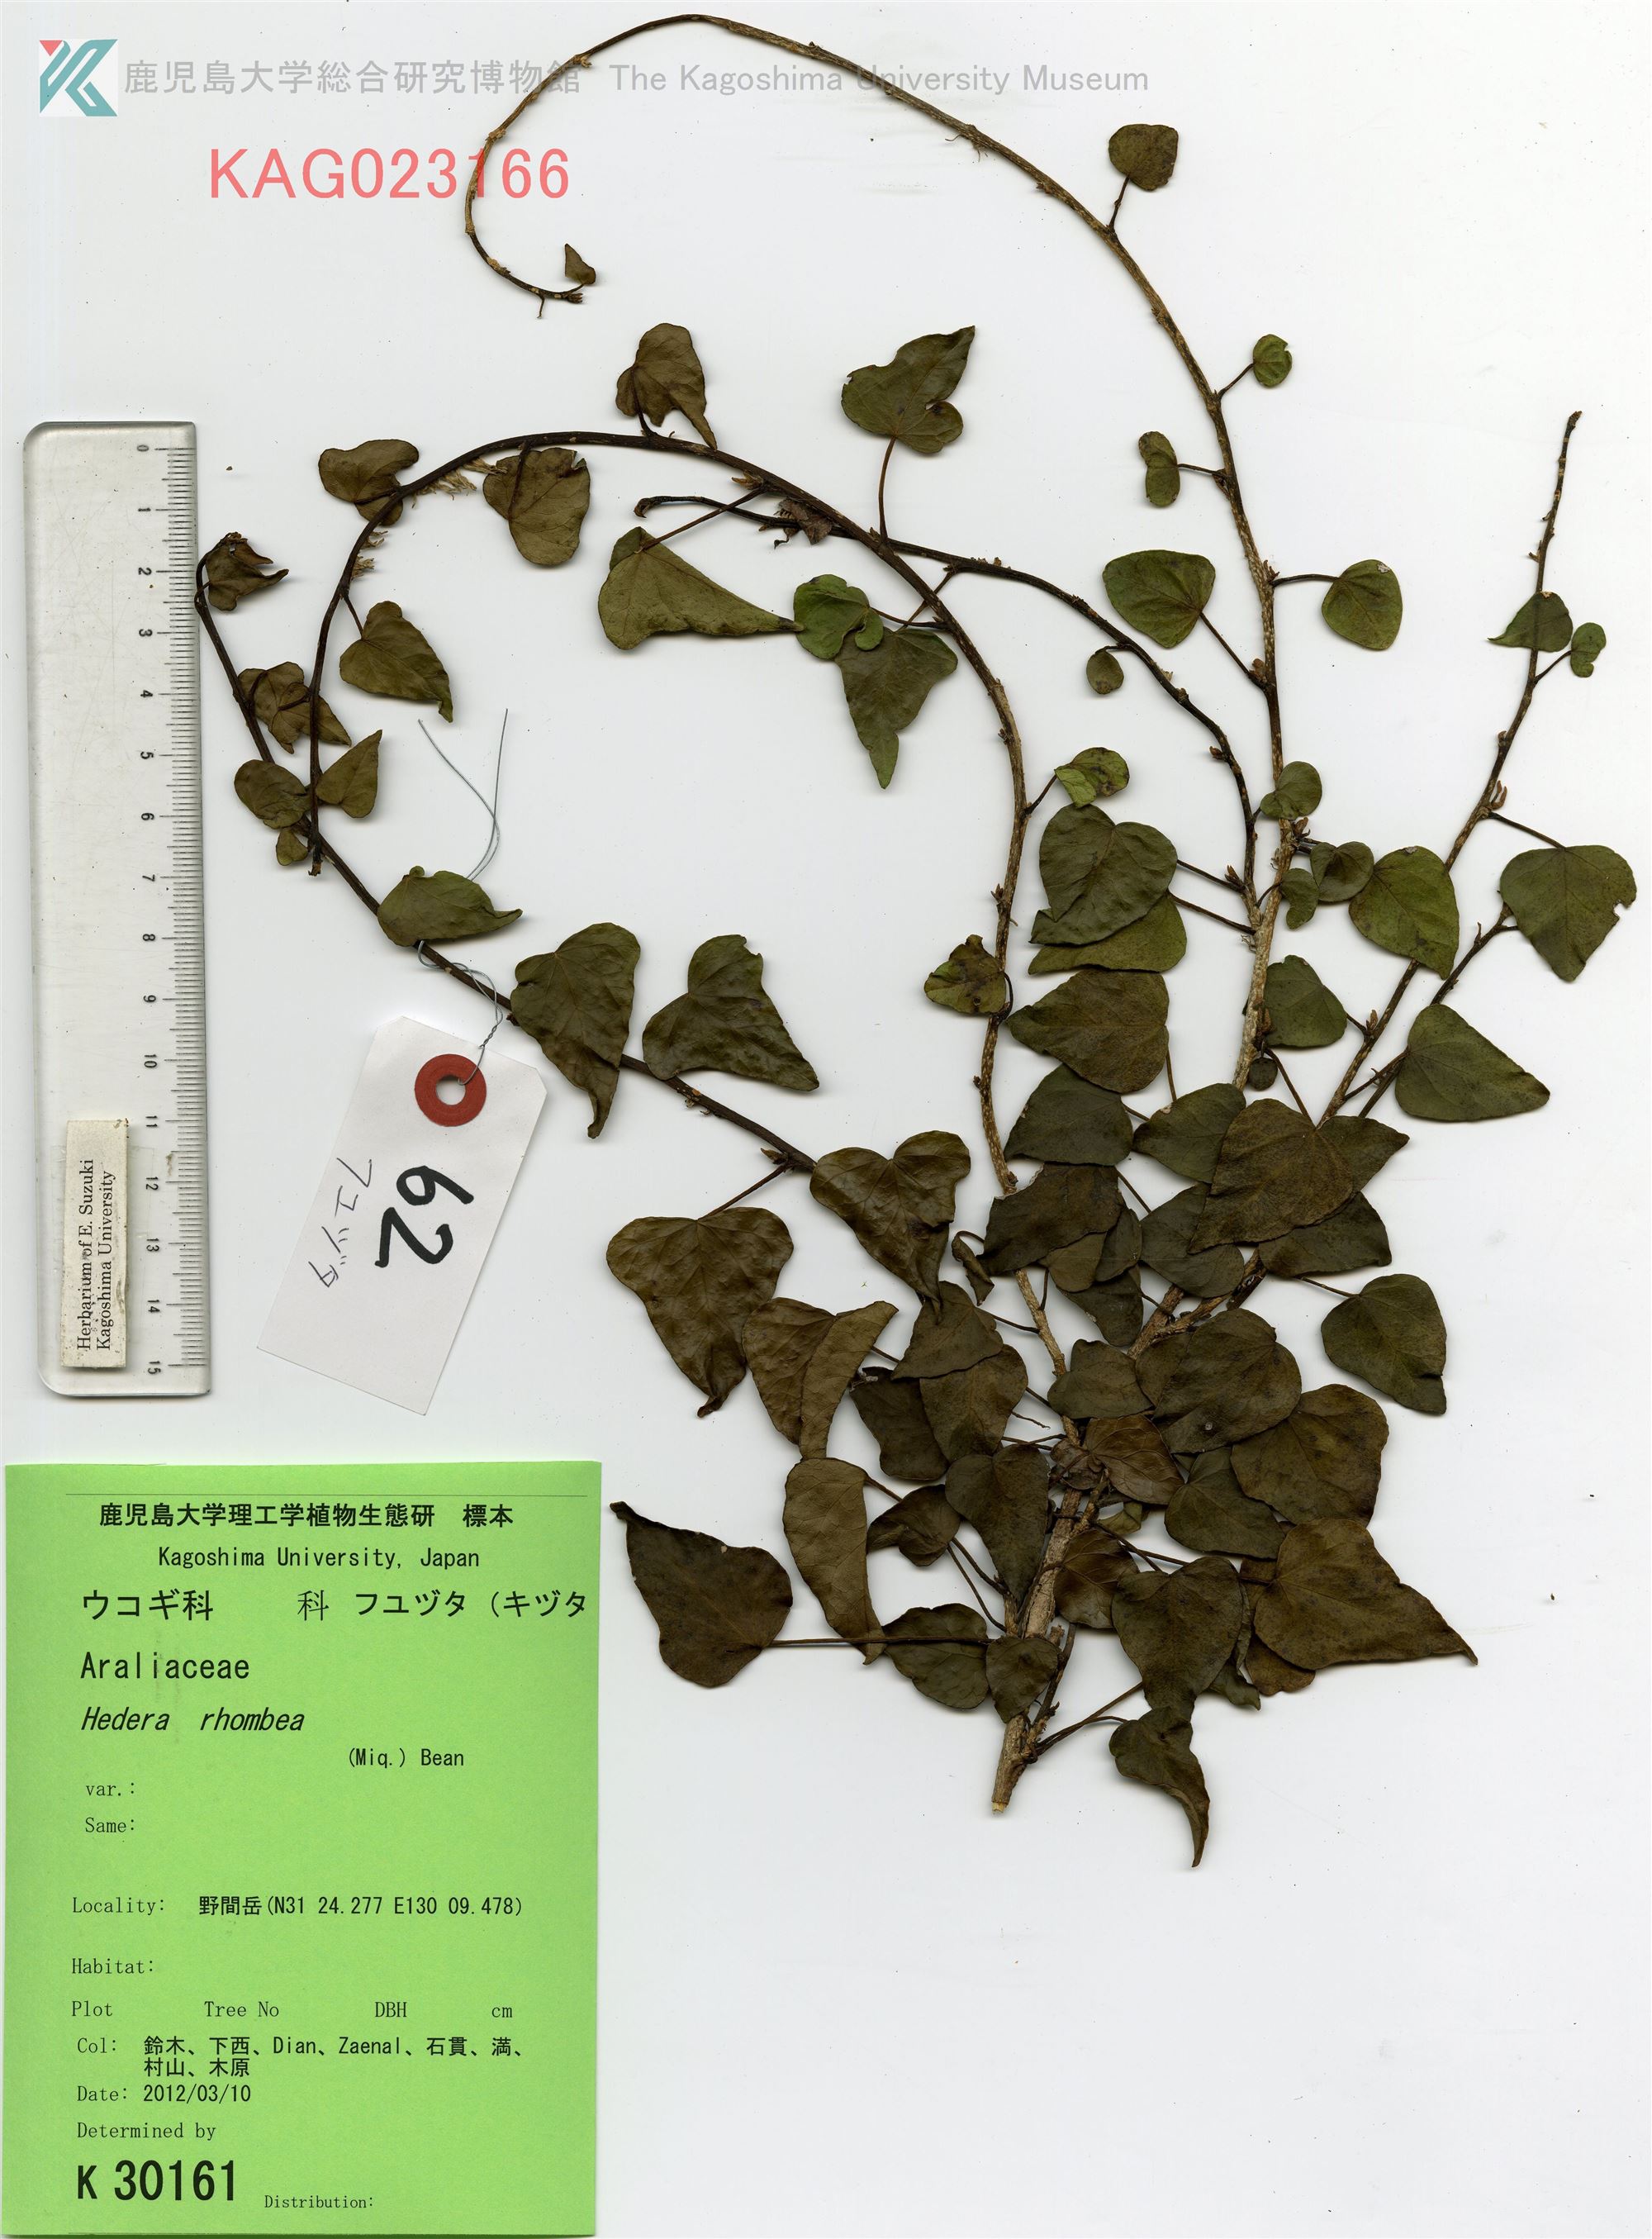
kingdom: Plantae
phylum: Tracheophyta
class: Magnoliopsida
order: Apiales
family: Araliaceae
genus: Hedera
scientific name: Hedera rhombea
